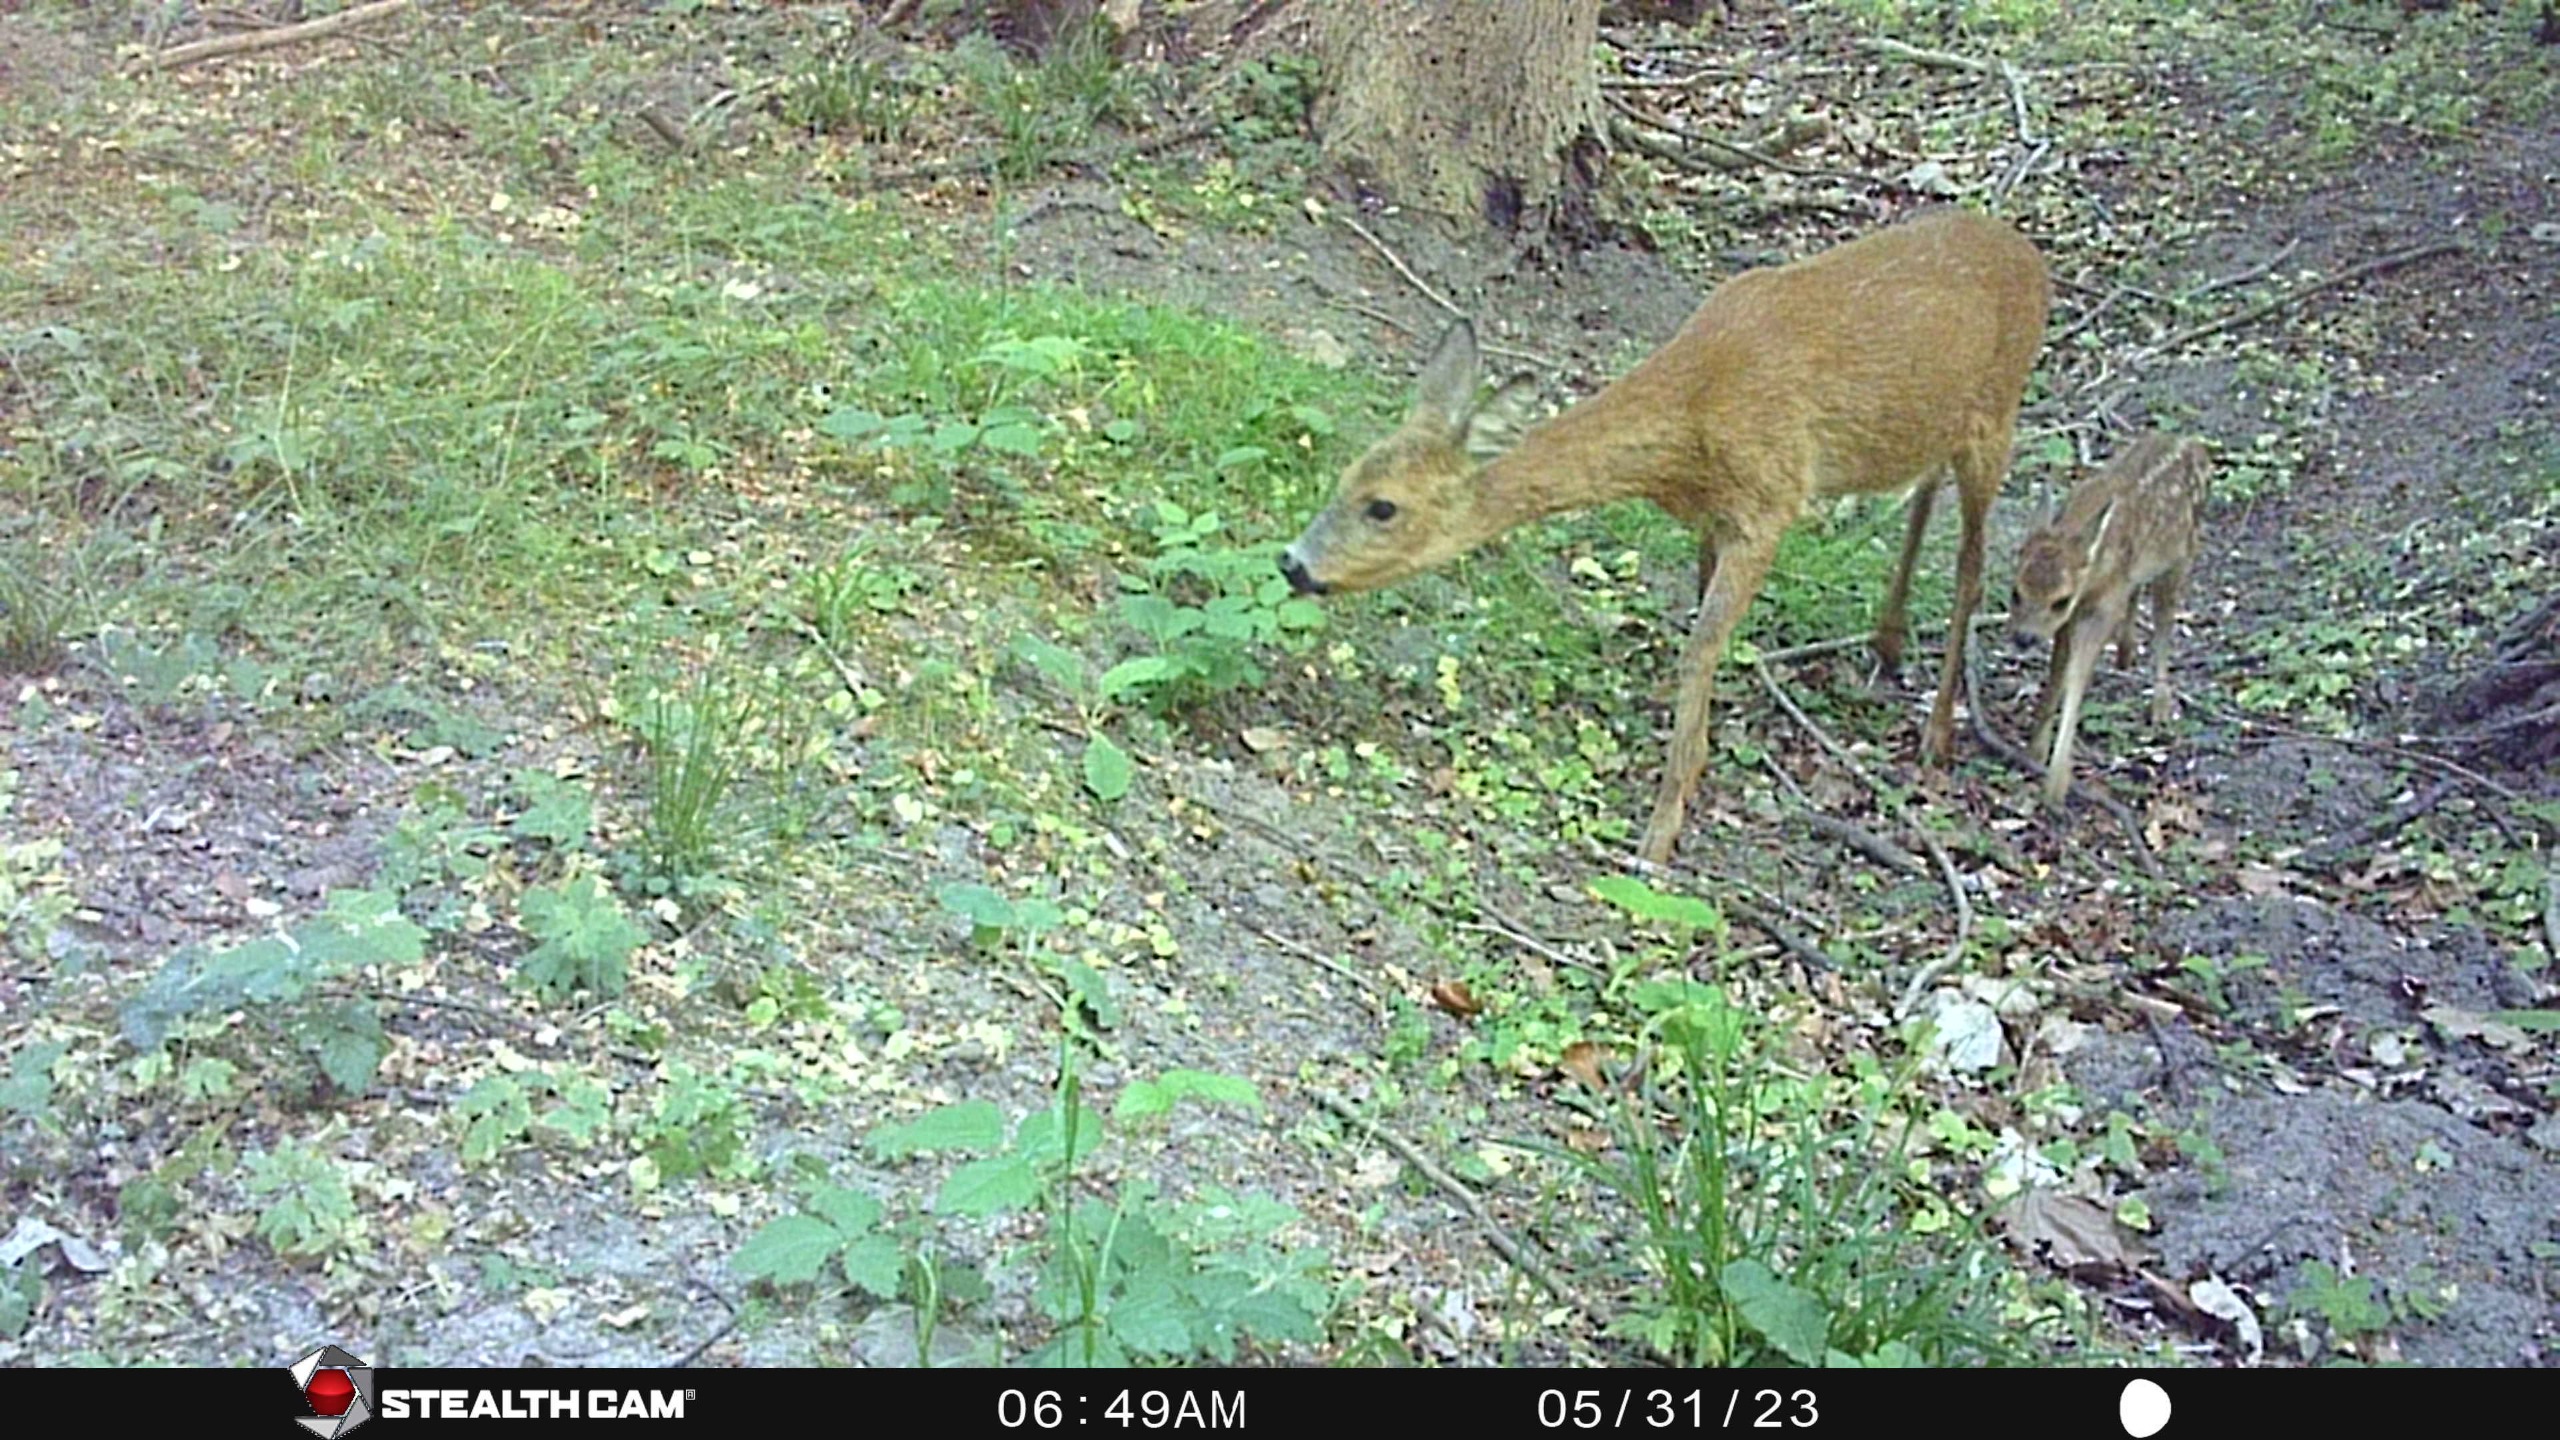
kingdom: Animalia
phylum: Chordata
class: Mammalia
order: Artiodactyla
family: Cervidae
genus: Capreolus
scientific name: Capreolus capreolus
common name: Rådyr
